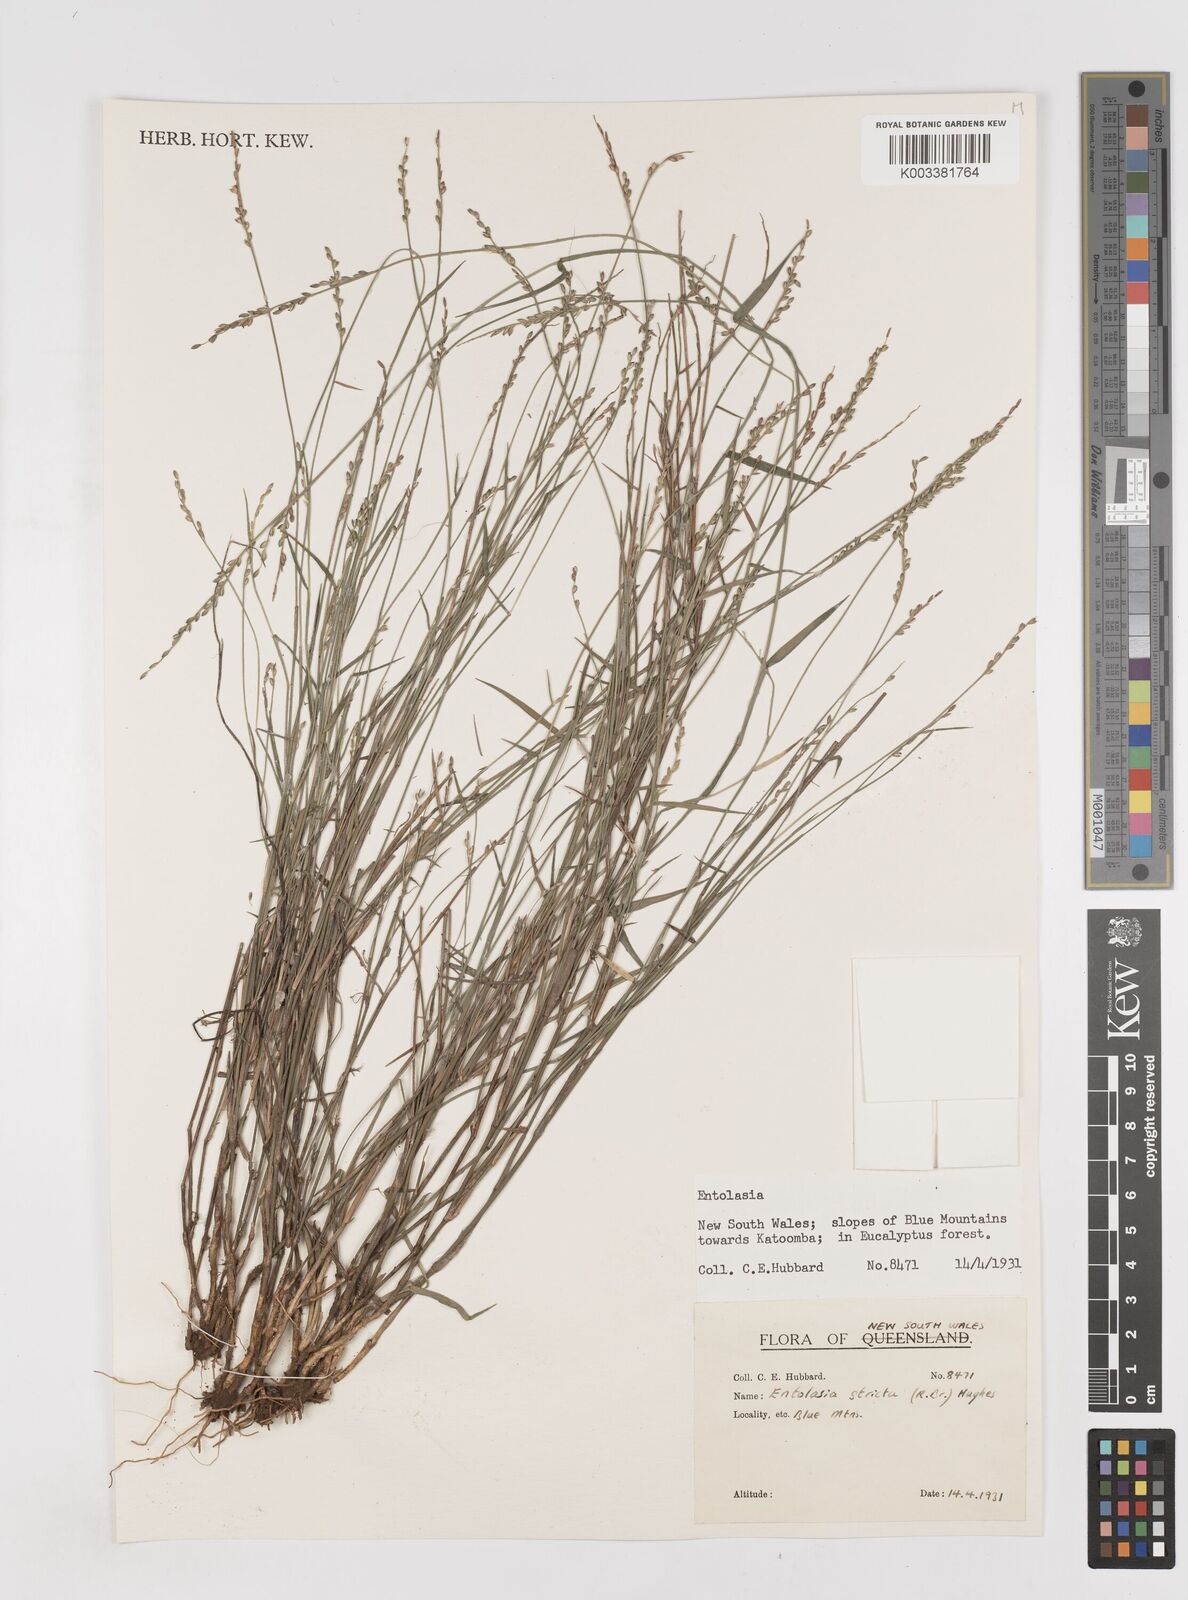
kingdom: Plantae
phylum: Tracheophyta
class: Liliopsida
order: Poales
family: Poaceae
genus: Entolasia
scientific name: Entolasia stricta
